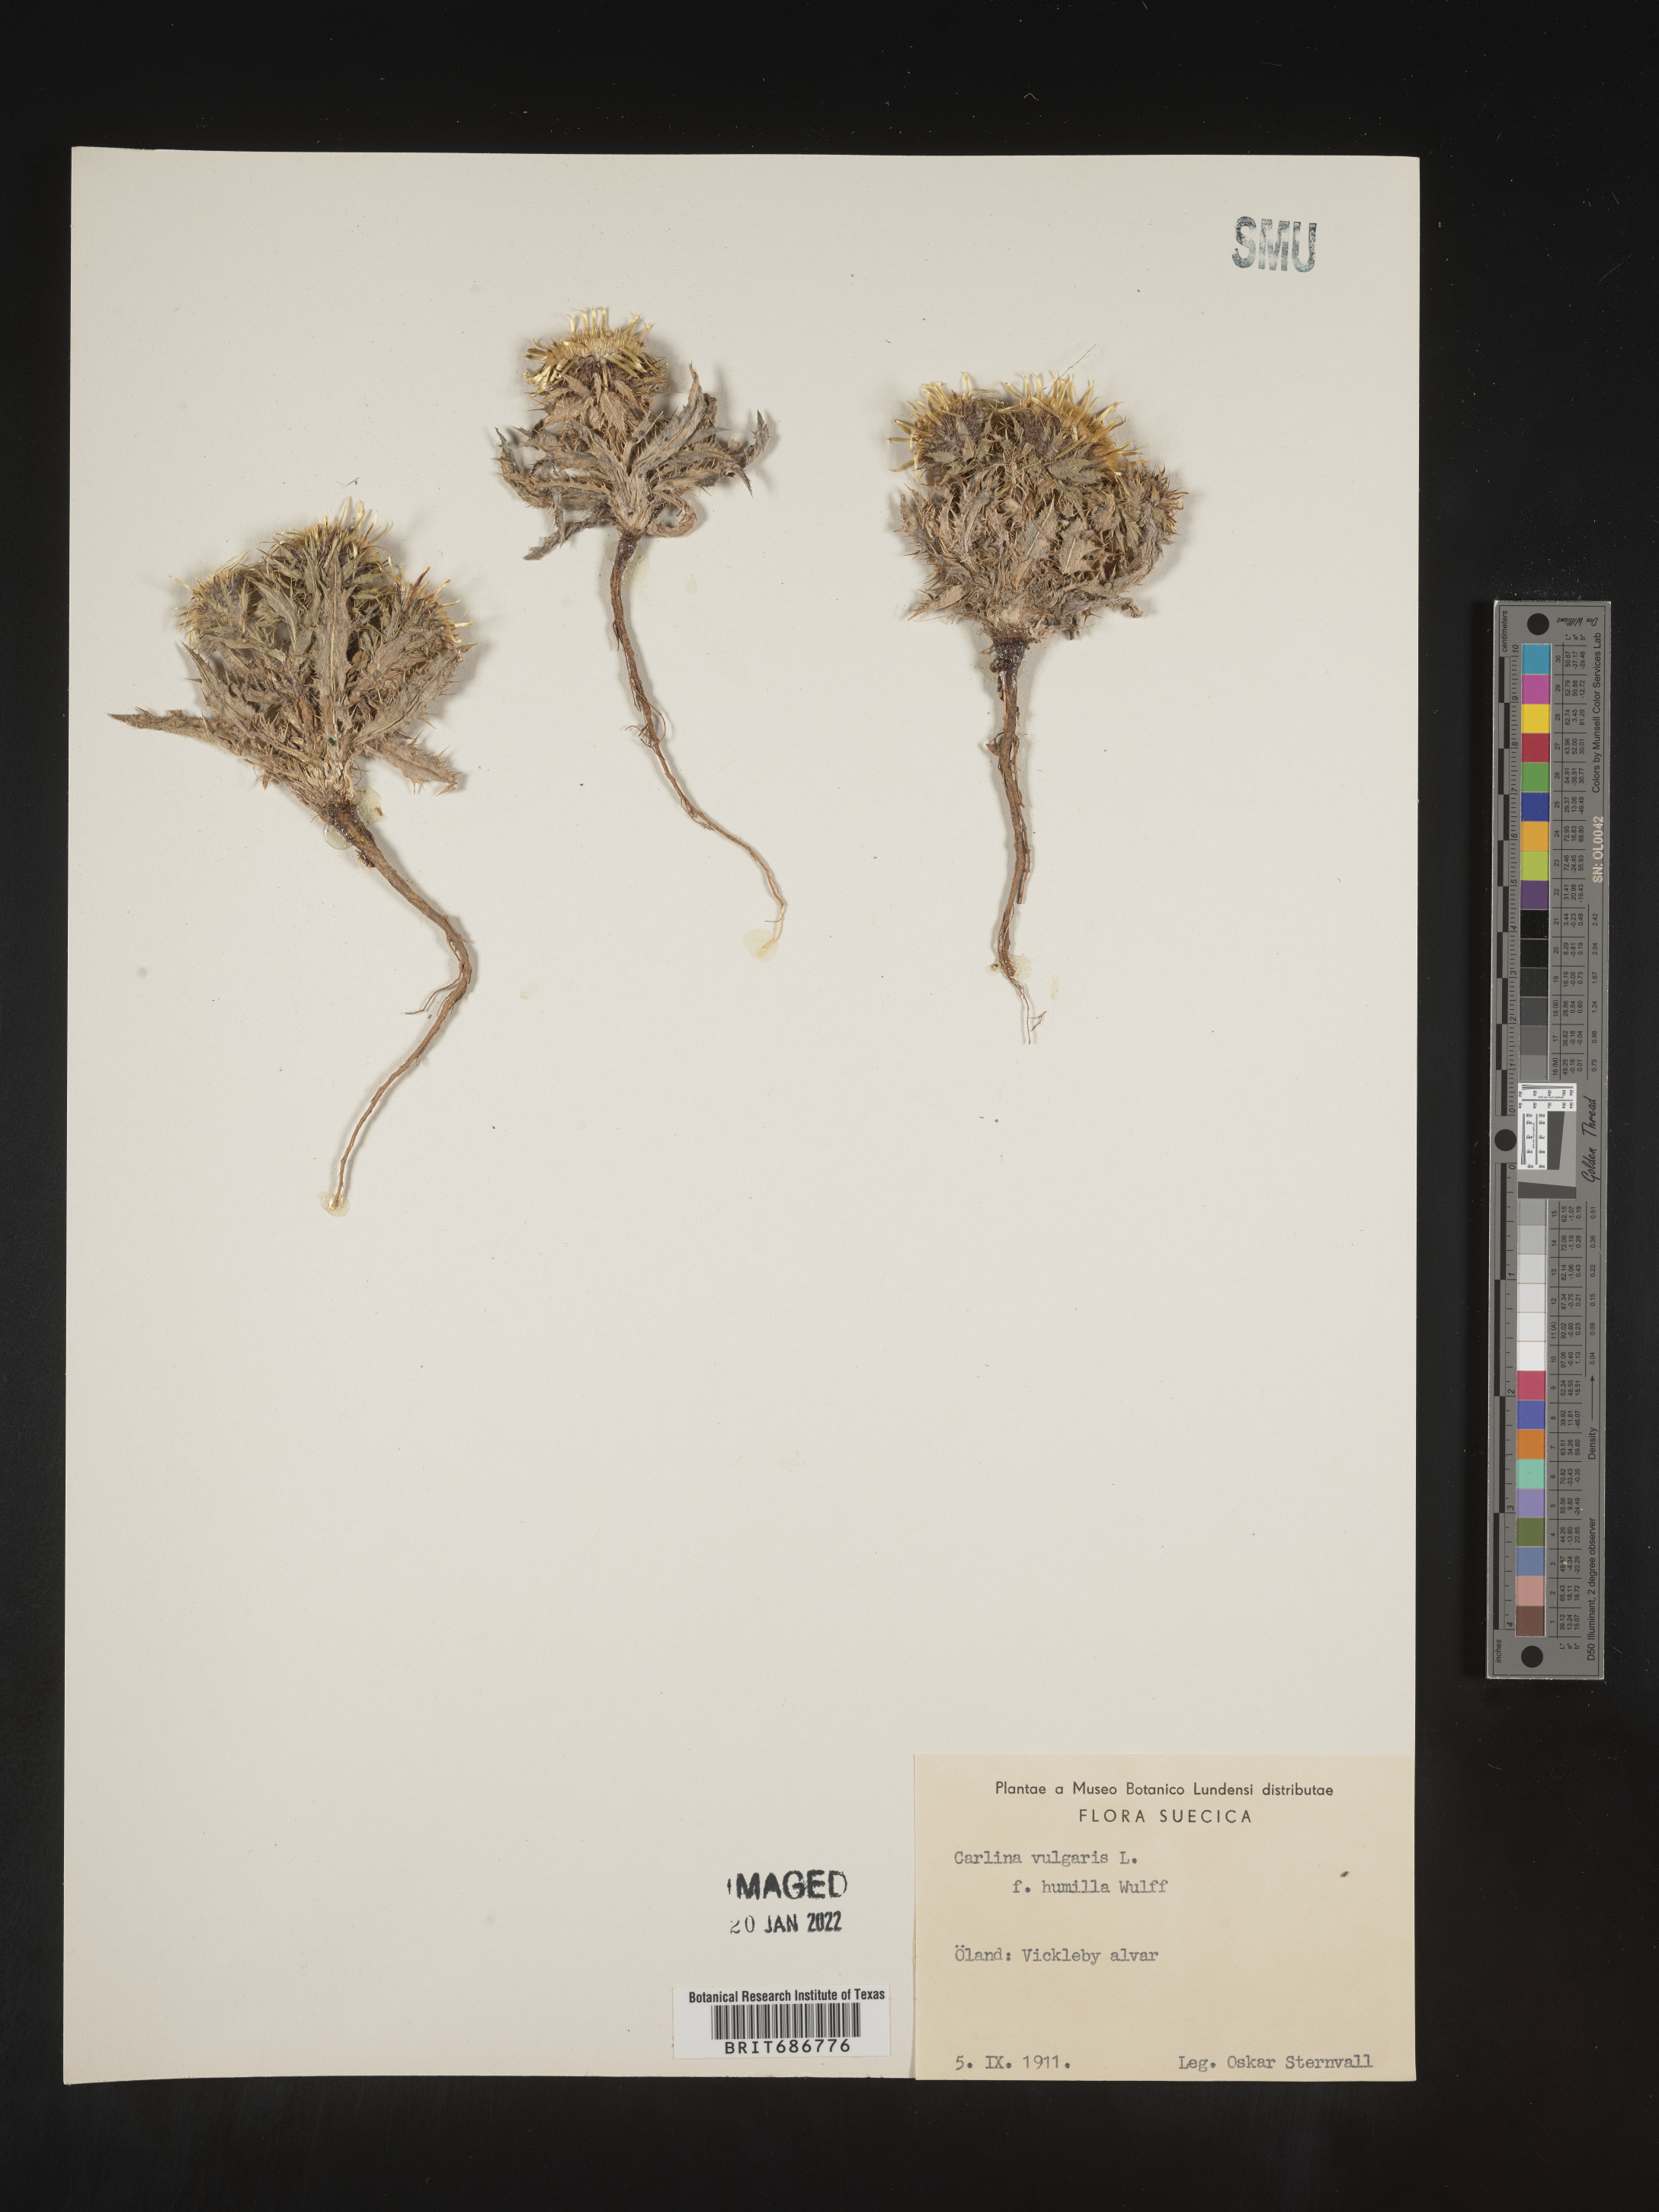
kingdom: Plantae
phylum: Tracheophyta
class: Magnoliopsida
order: Asterales
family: Asteraceae
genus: Carlina
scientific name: Carlina
